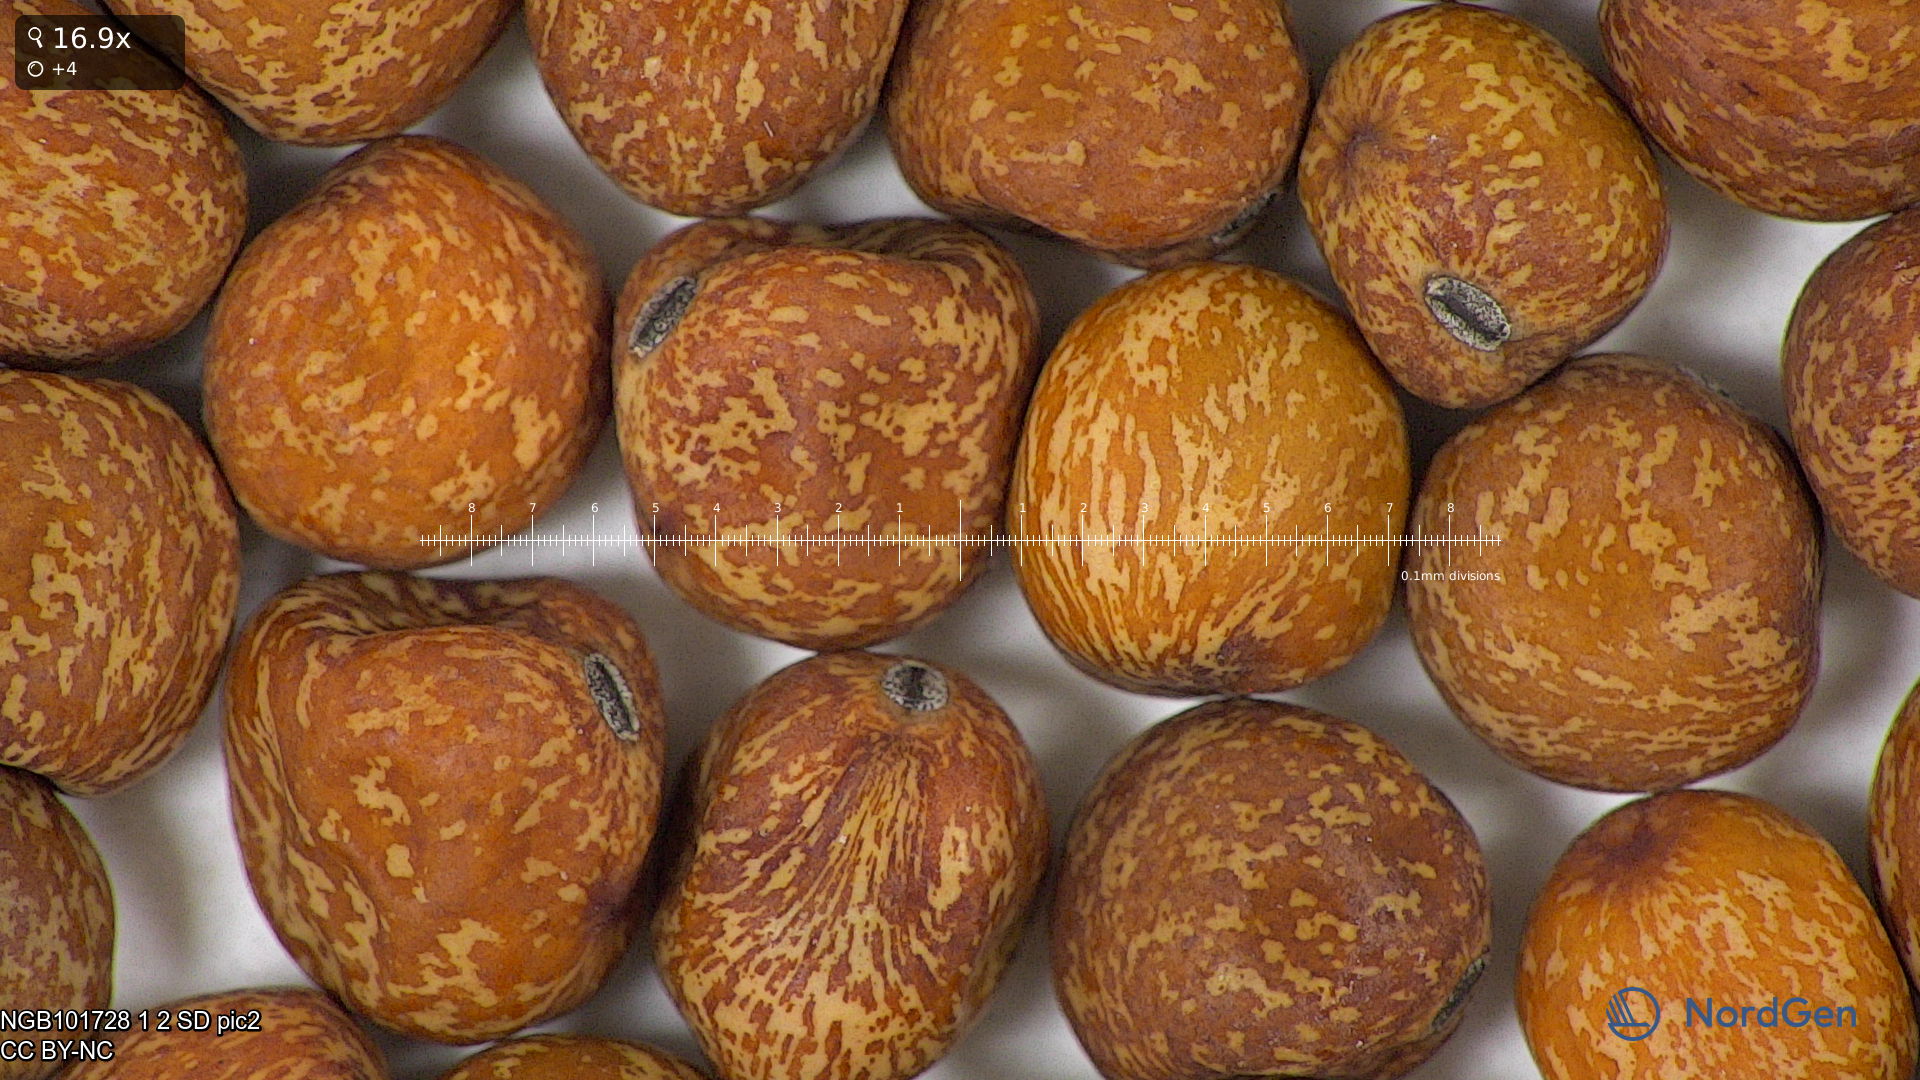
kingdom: Plantae
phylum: Tracheophyta
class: Magnoliopsida
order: Fabales
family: Fabaceae
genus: Lathyrus
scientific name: Lathyrus oleraceus
